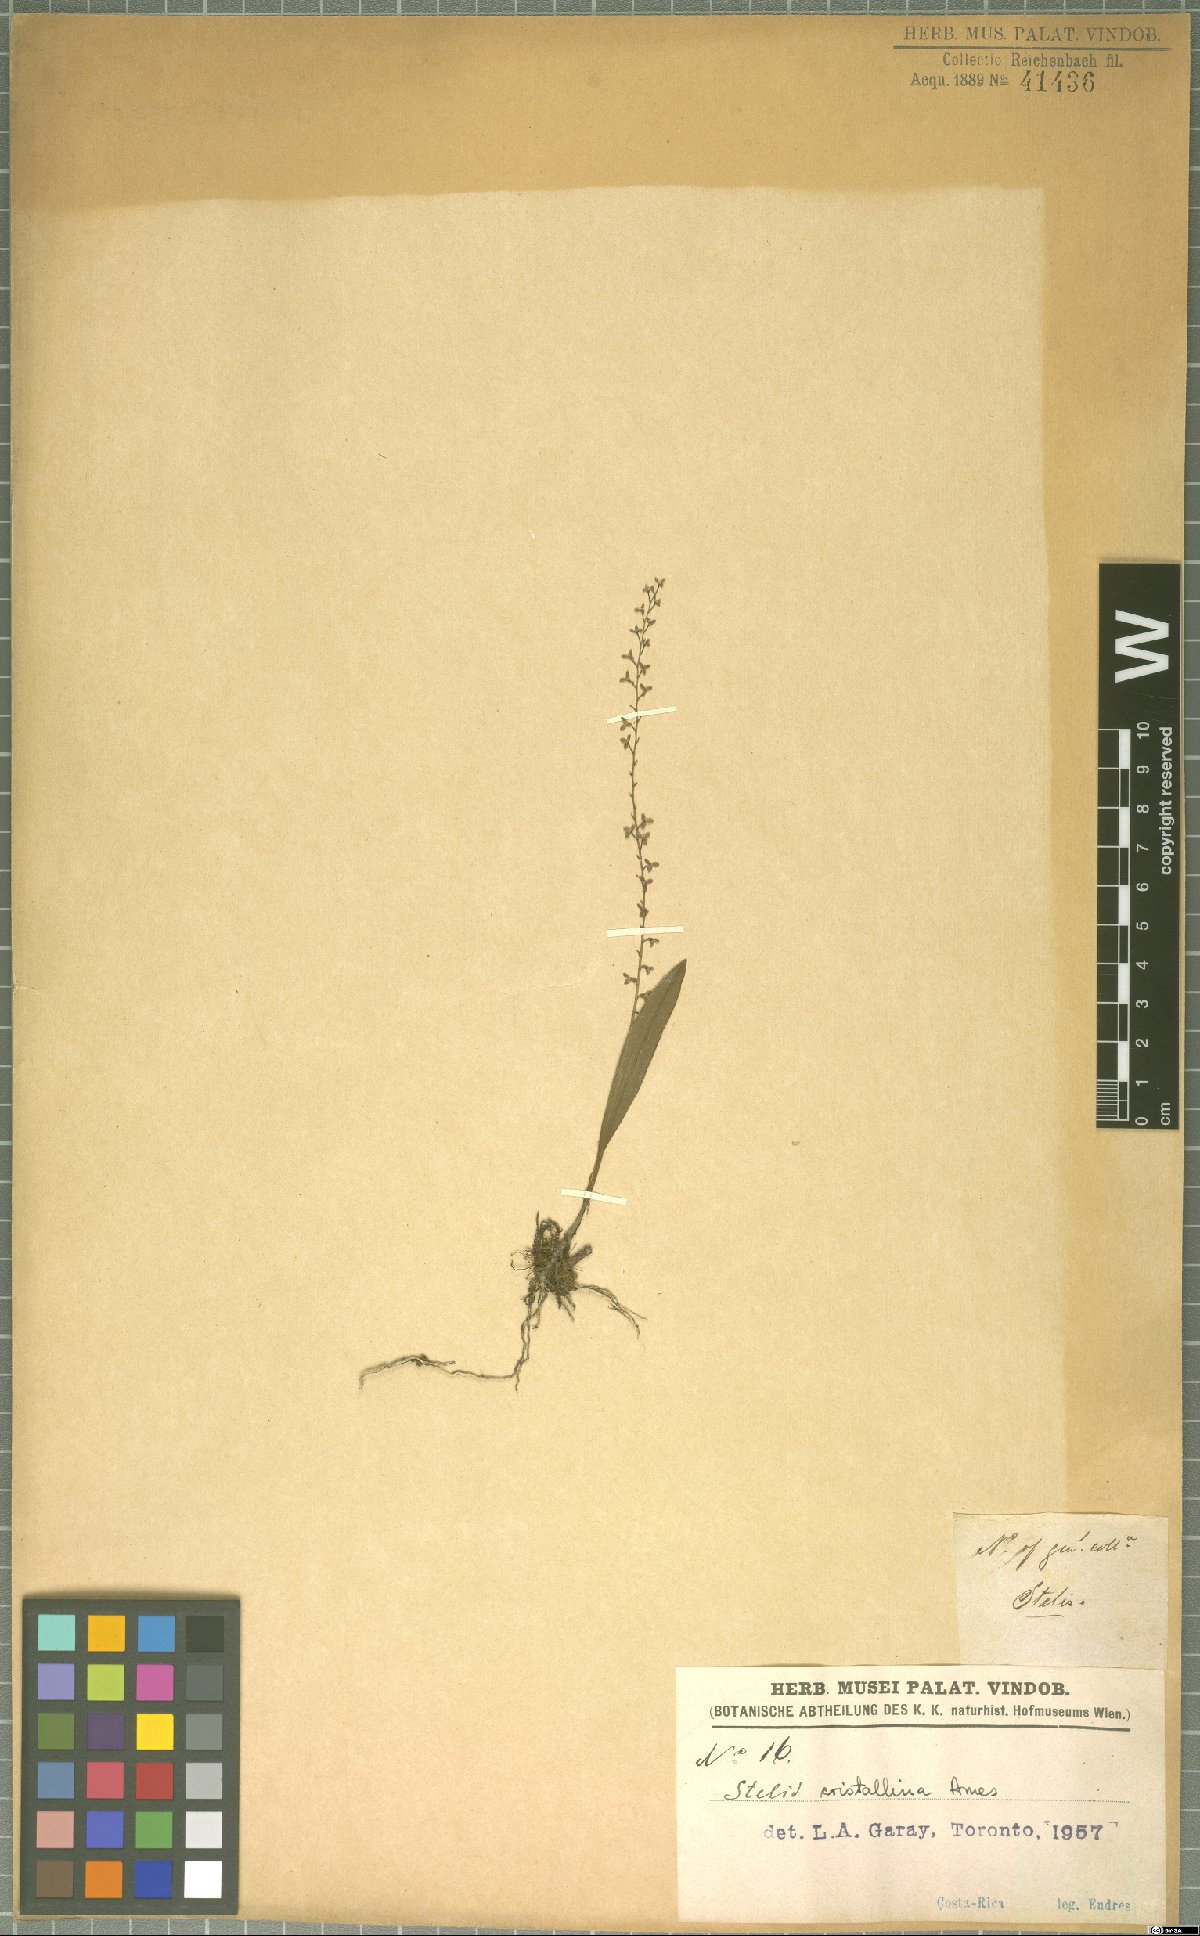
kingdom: Plantae
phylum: Tracheophyta
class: Liliopsida
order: Asparagales
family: Orchidaceae
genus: Stelis
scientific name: Stelis crystallina
